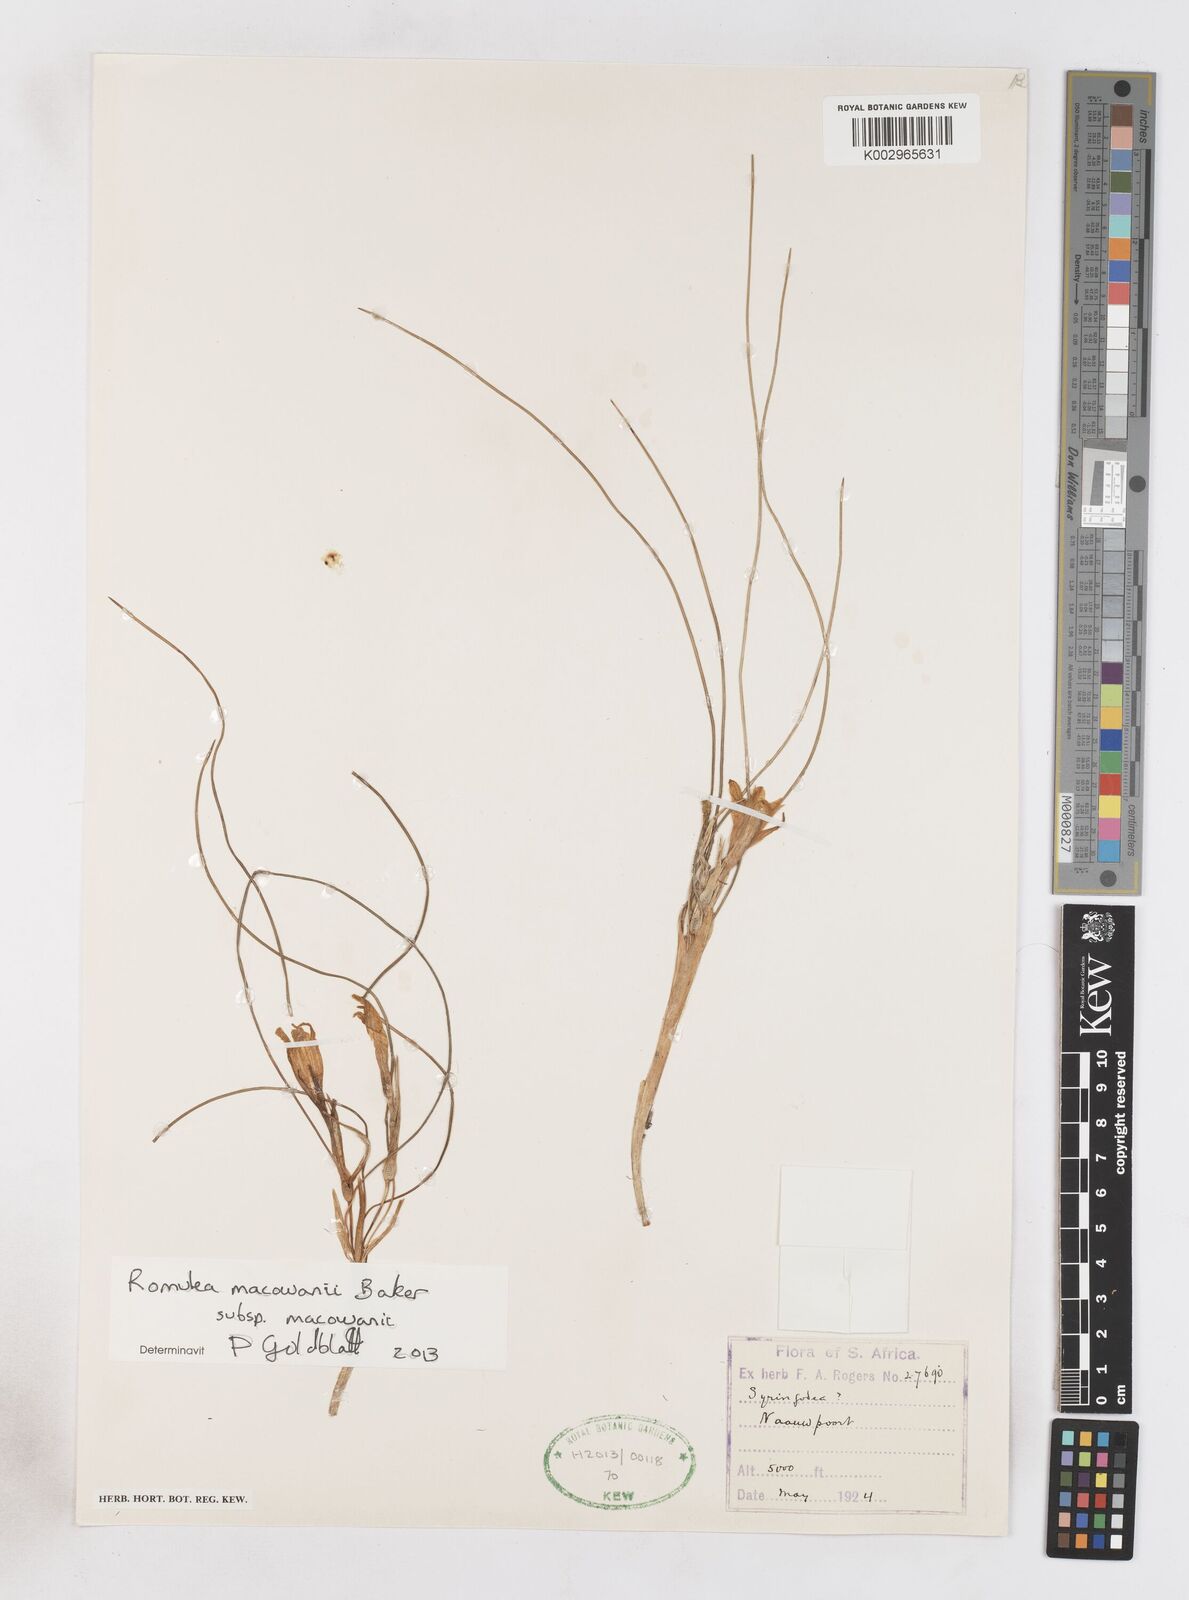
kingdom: Plantae
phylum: Tracheophyta
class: Liliopsida
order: Asparagales
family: Iridaceae
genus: Romulea
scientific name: Romulea macowanii
